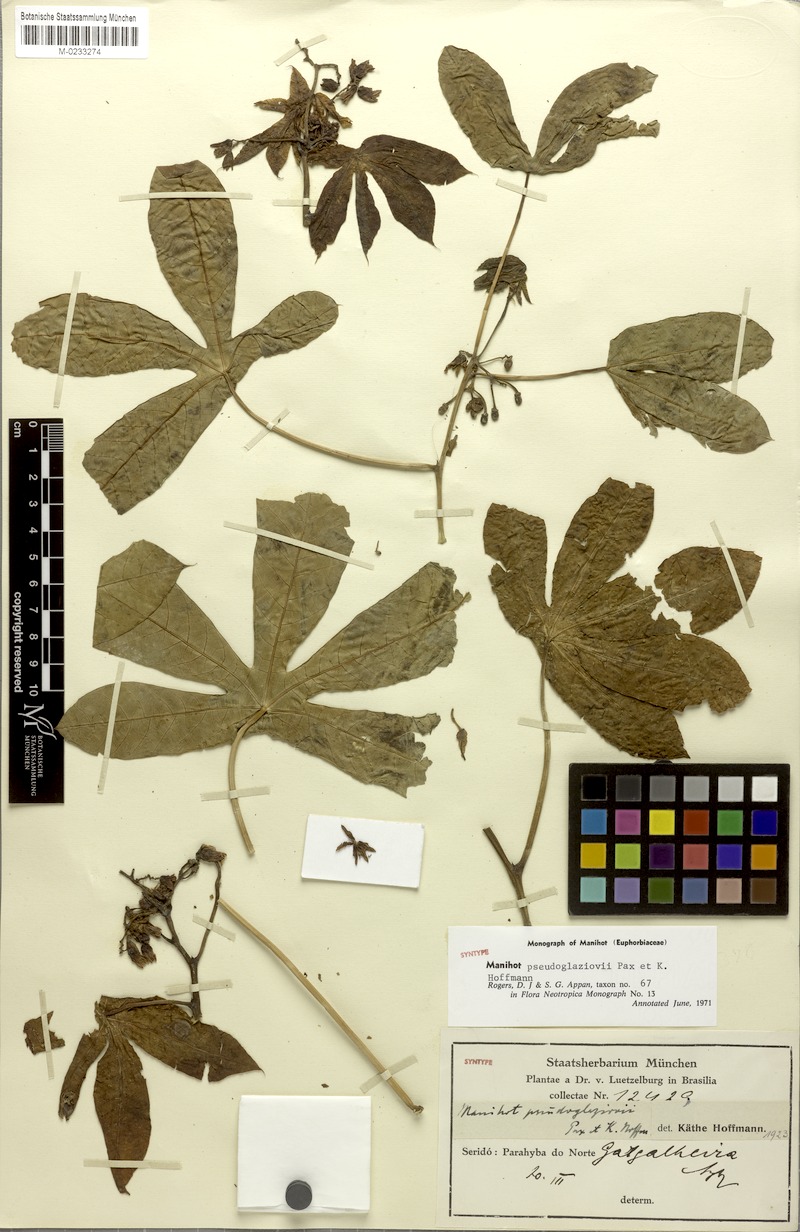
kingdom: Plantae
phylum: Tracheophyta
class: Magnoliopsida
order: Malpighiales
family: Euphorbiaceae
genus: Manihot
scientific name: Manihot carthaginensis
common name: Ceara rubbertree
